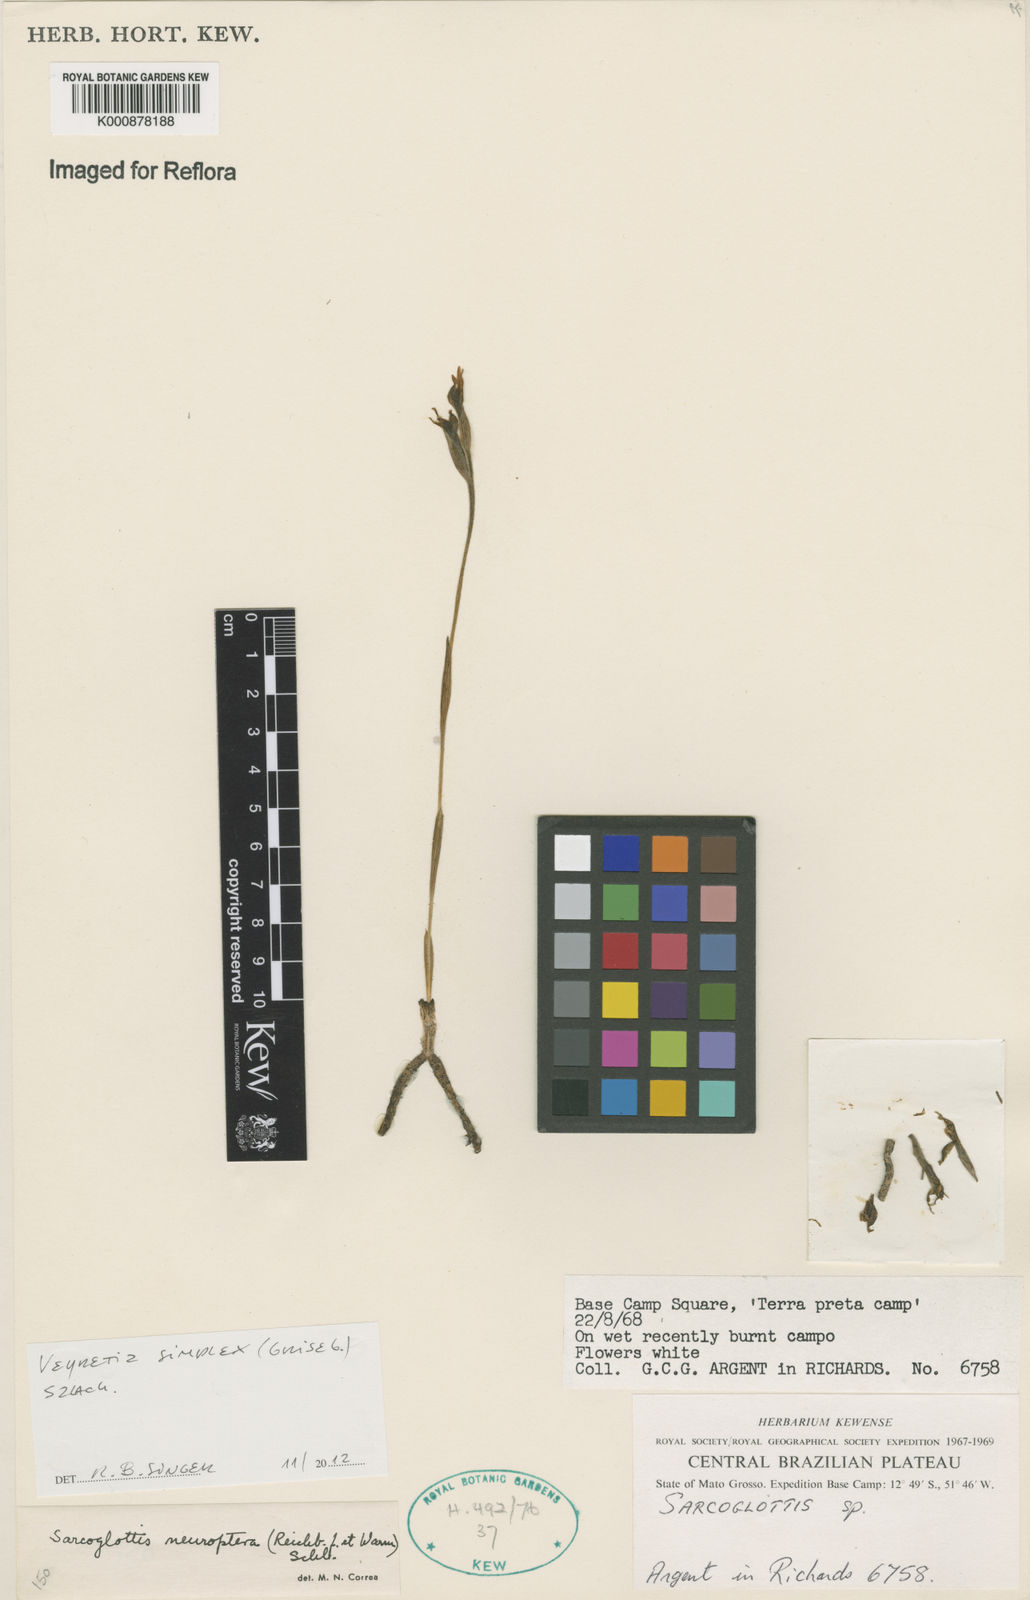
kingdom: Plantae
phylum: Tracheophyta
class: Liliopsida
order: Asparagales
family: Orchidaceae
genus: Veyretia
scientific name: Veyretia simplex
